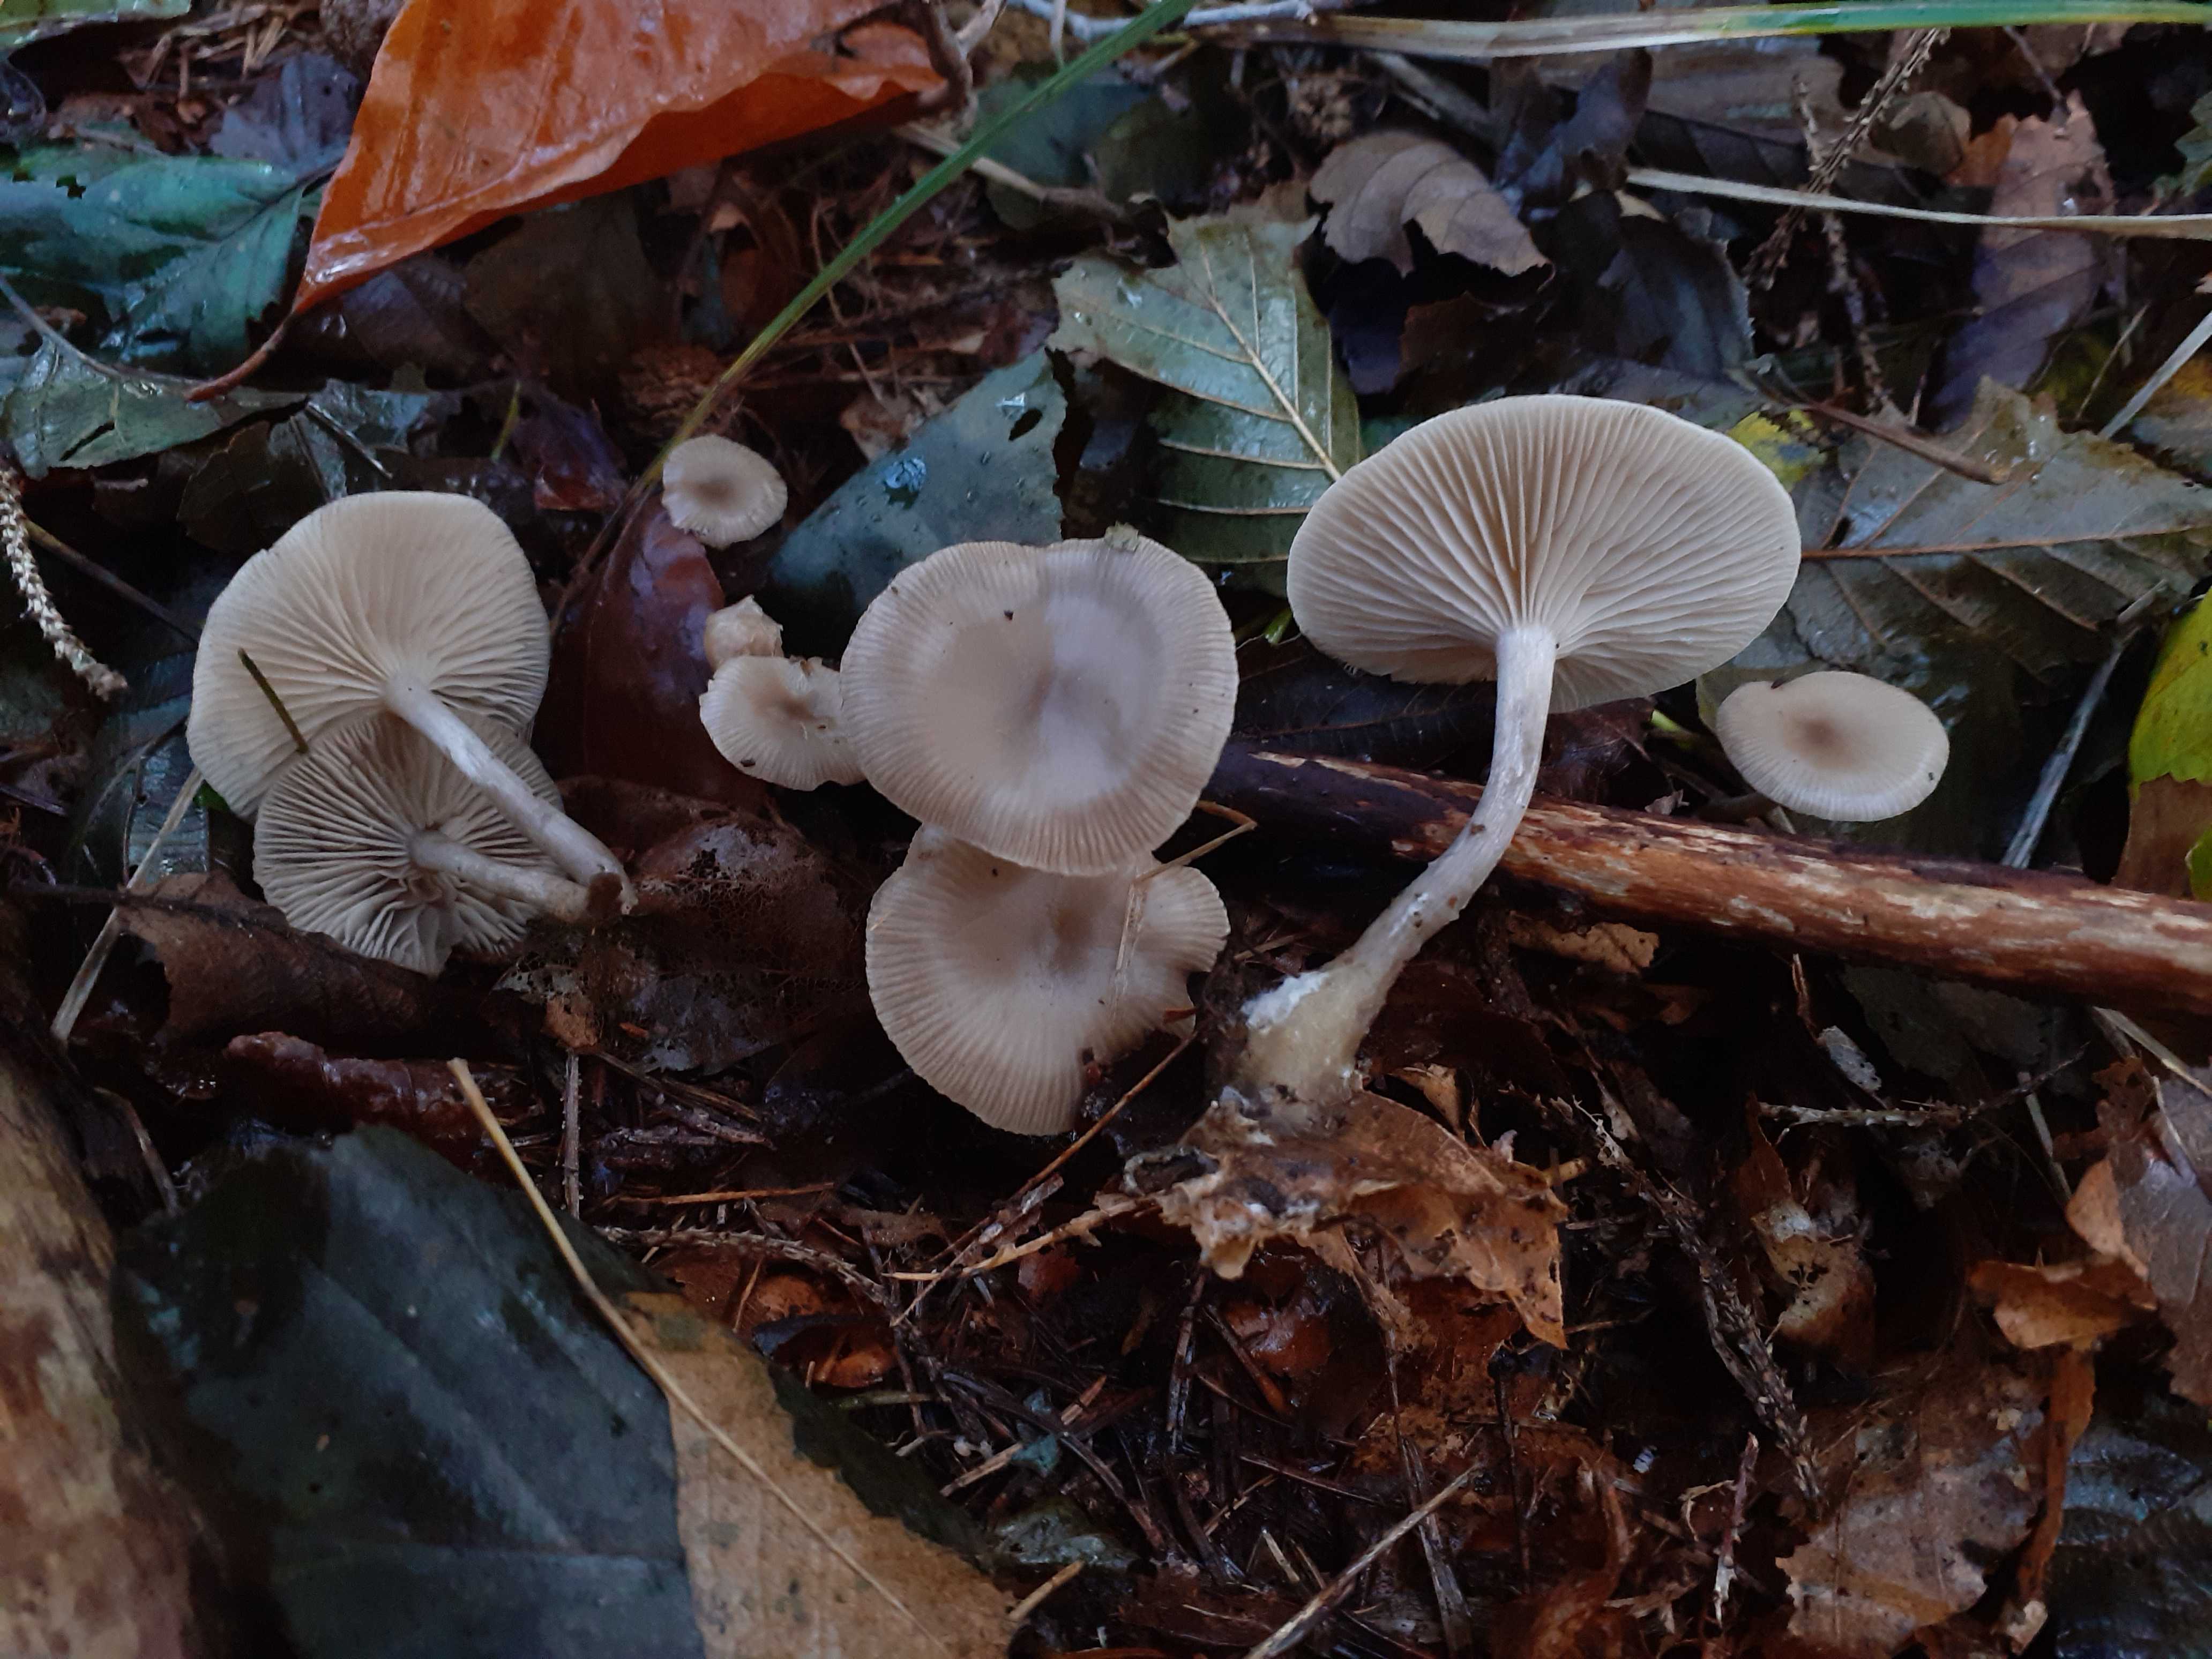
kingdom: Fungi
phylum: Basidiomycota
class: Agaricomycetes
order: Agaricales
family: Tricholomataceae
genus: Infundibulicybe
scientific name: Infundibulicybe gibba
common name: almindelig tragthat
